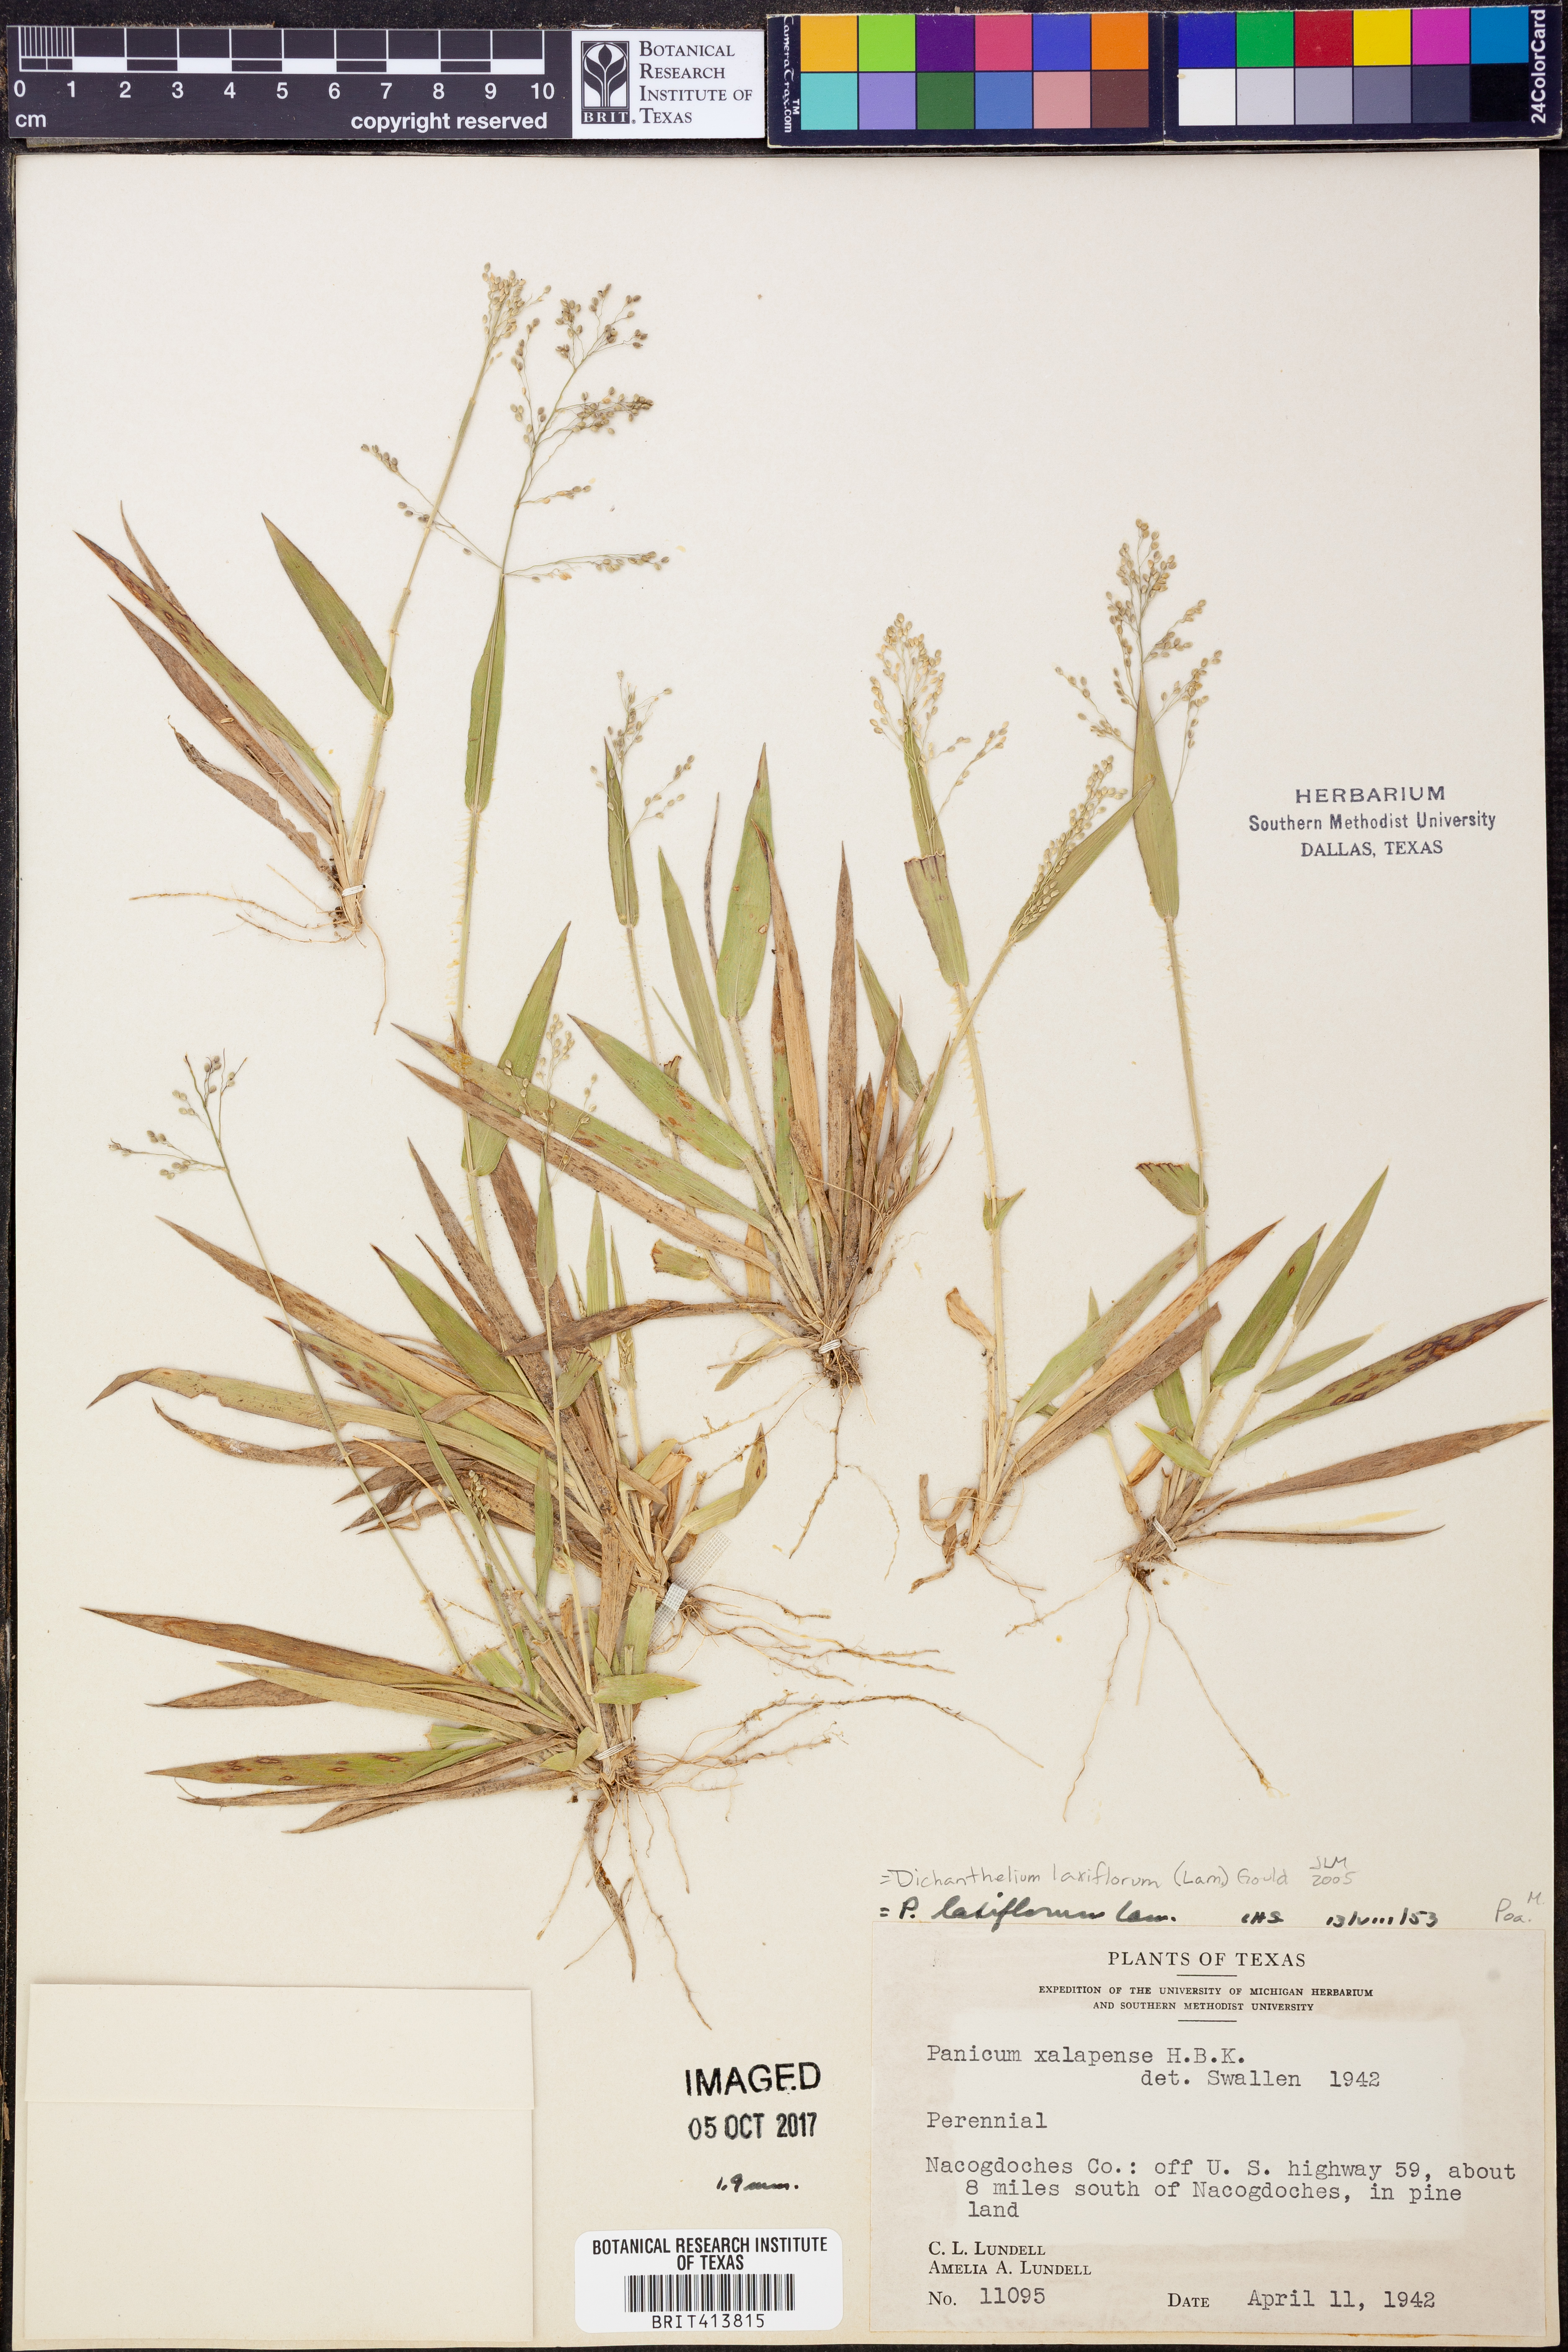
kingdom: Plantae
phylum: Tracheophyta
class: Liliopsida
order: Poales
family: Poaceae
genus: Dichanthelium
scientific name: Dichanthelium laxiflorum
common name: Soft-tuft panic grass
